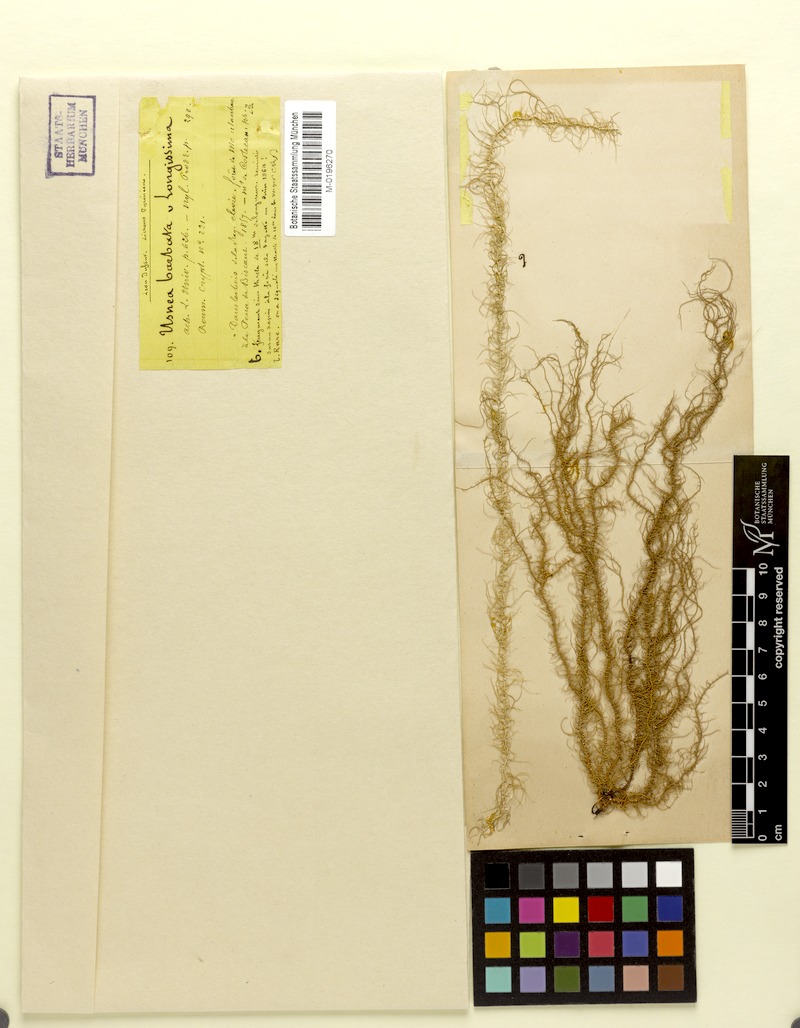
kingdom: Fungi
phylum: Ascomycota
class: Lecanoromycetes
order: Lecanorales
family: Parmeliaceae
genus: Dolichousnea
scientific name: Dolichousnea longissima
